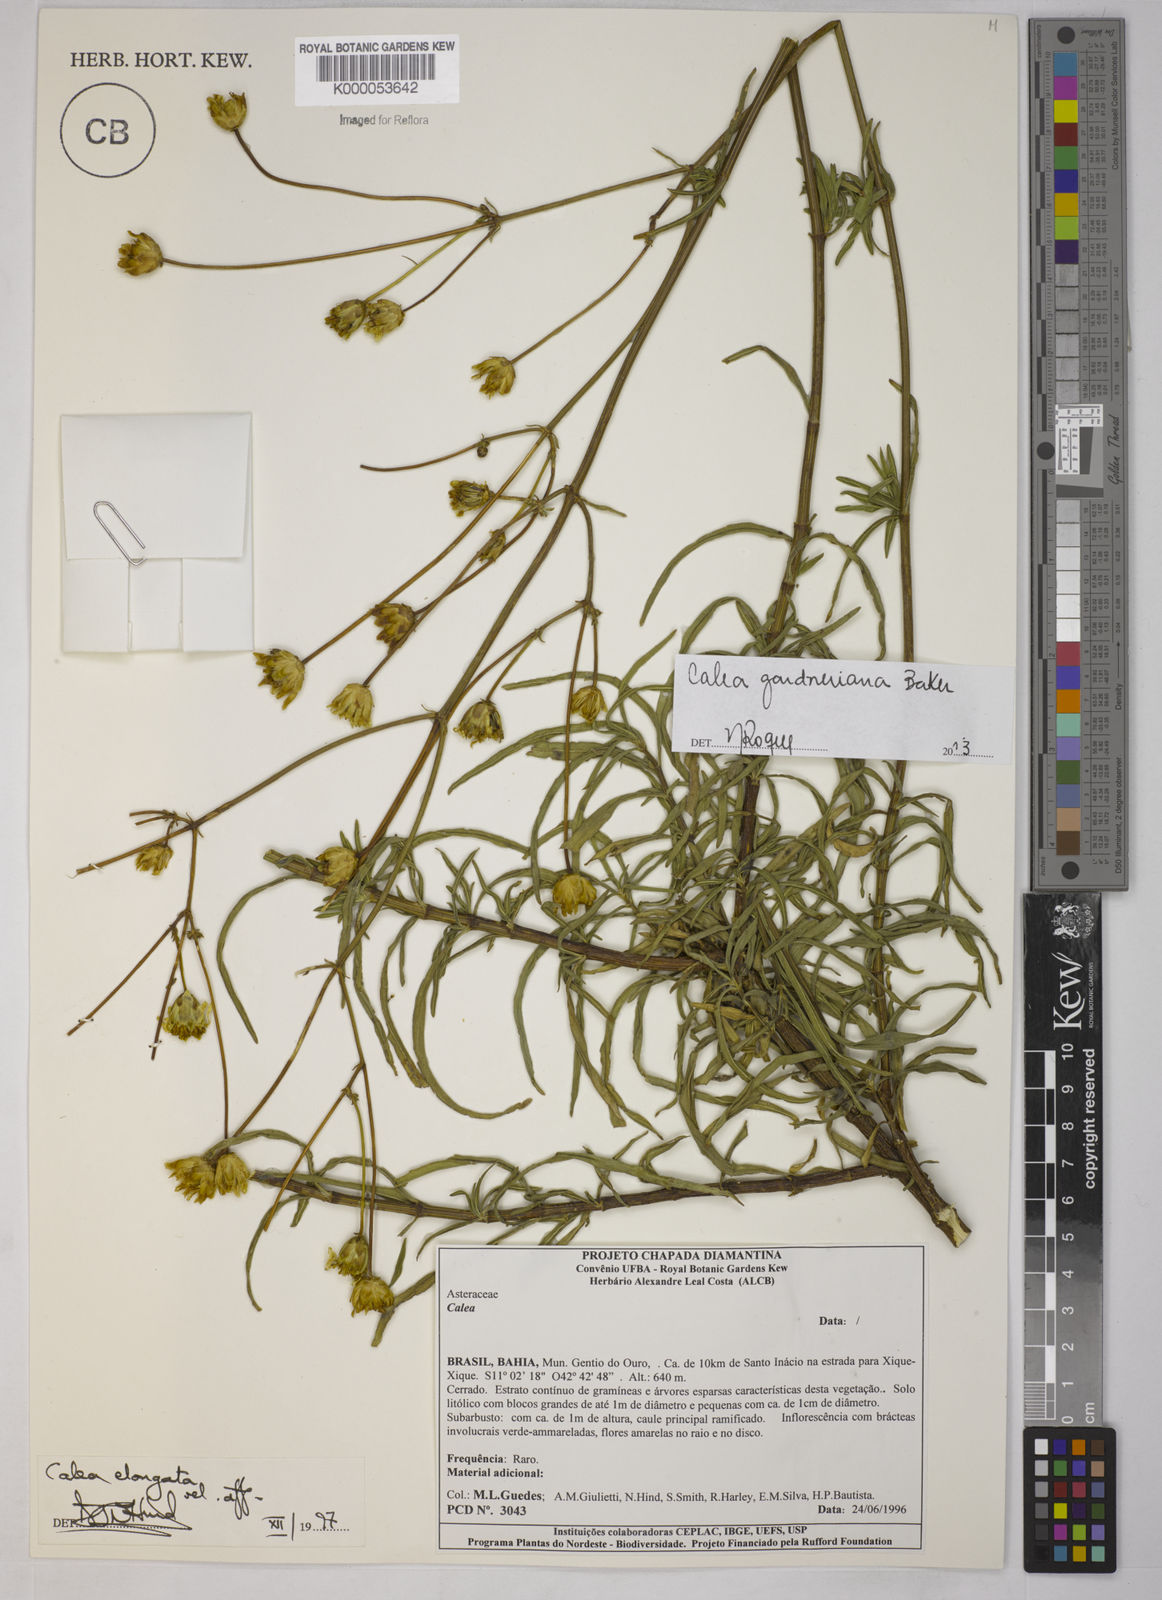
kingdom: Plantae
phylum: Tracheophyta
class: Magnoliopsida
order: Asterales
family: Asteraceae
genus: Calea
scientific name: Calea elongata
